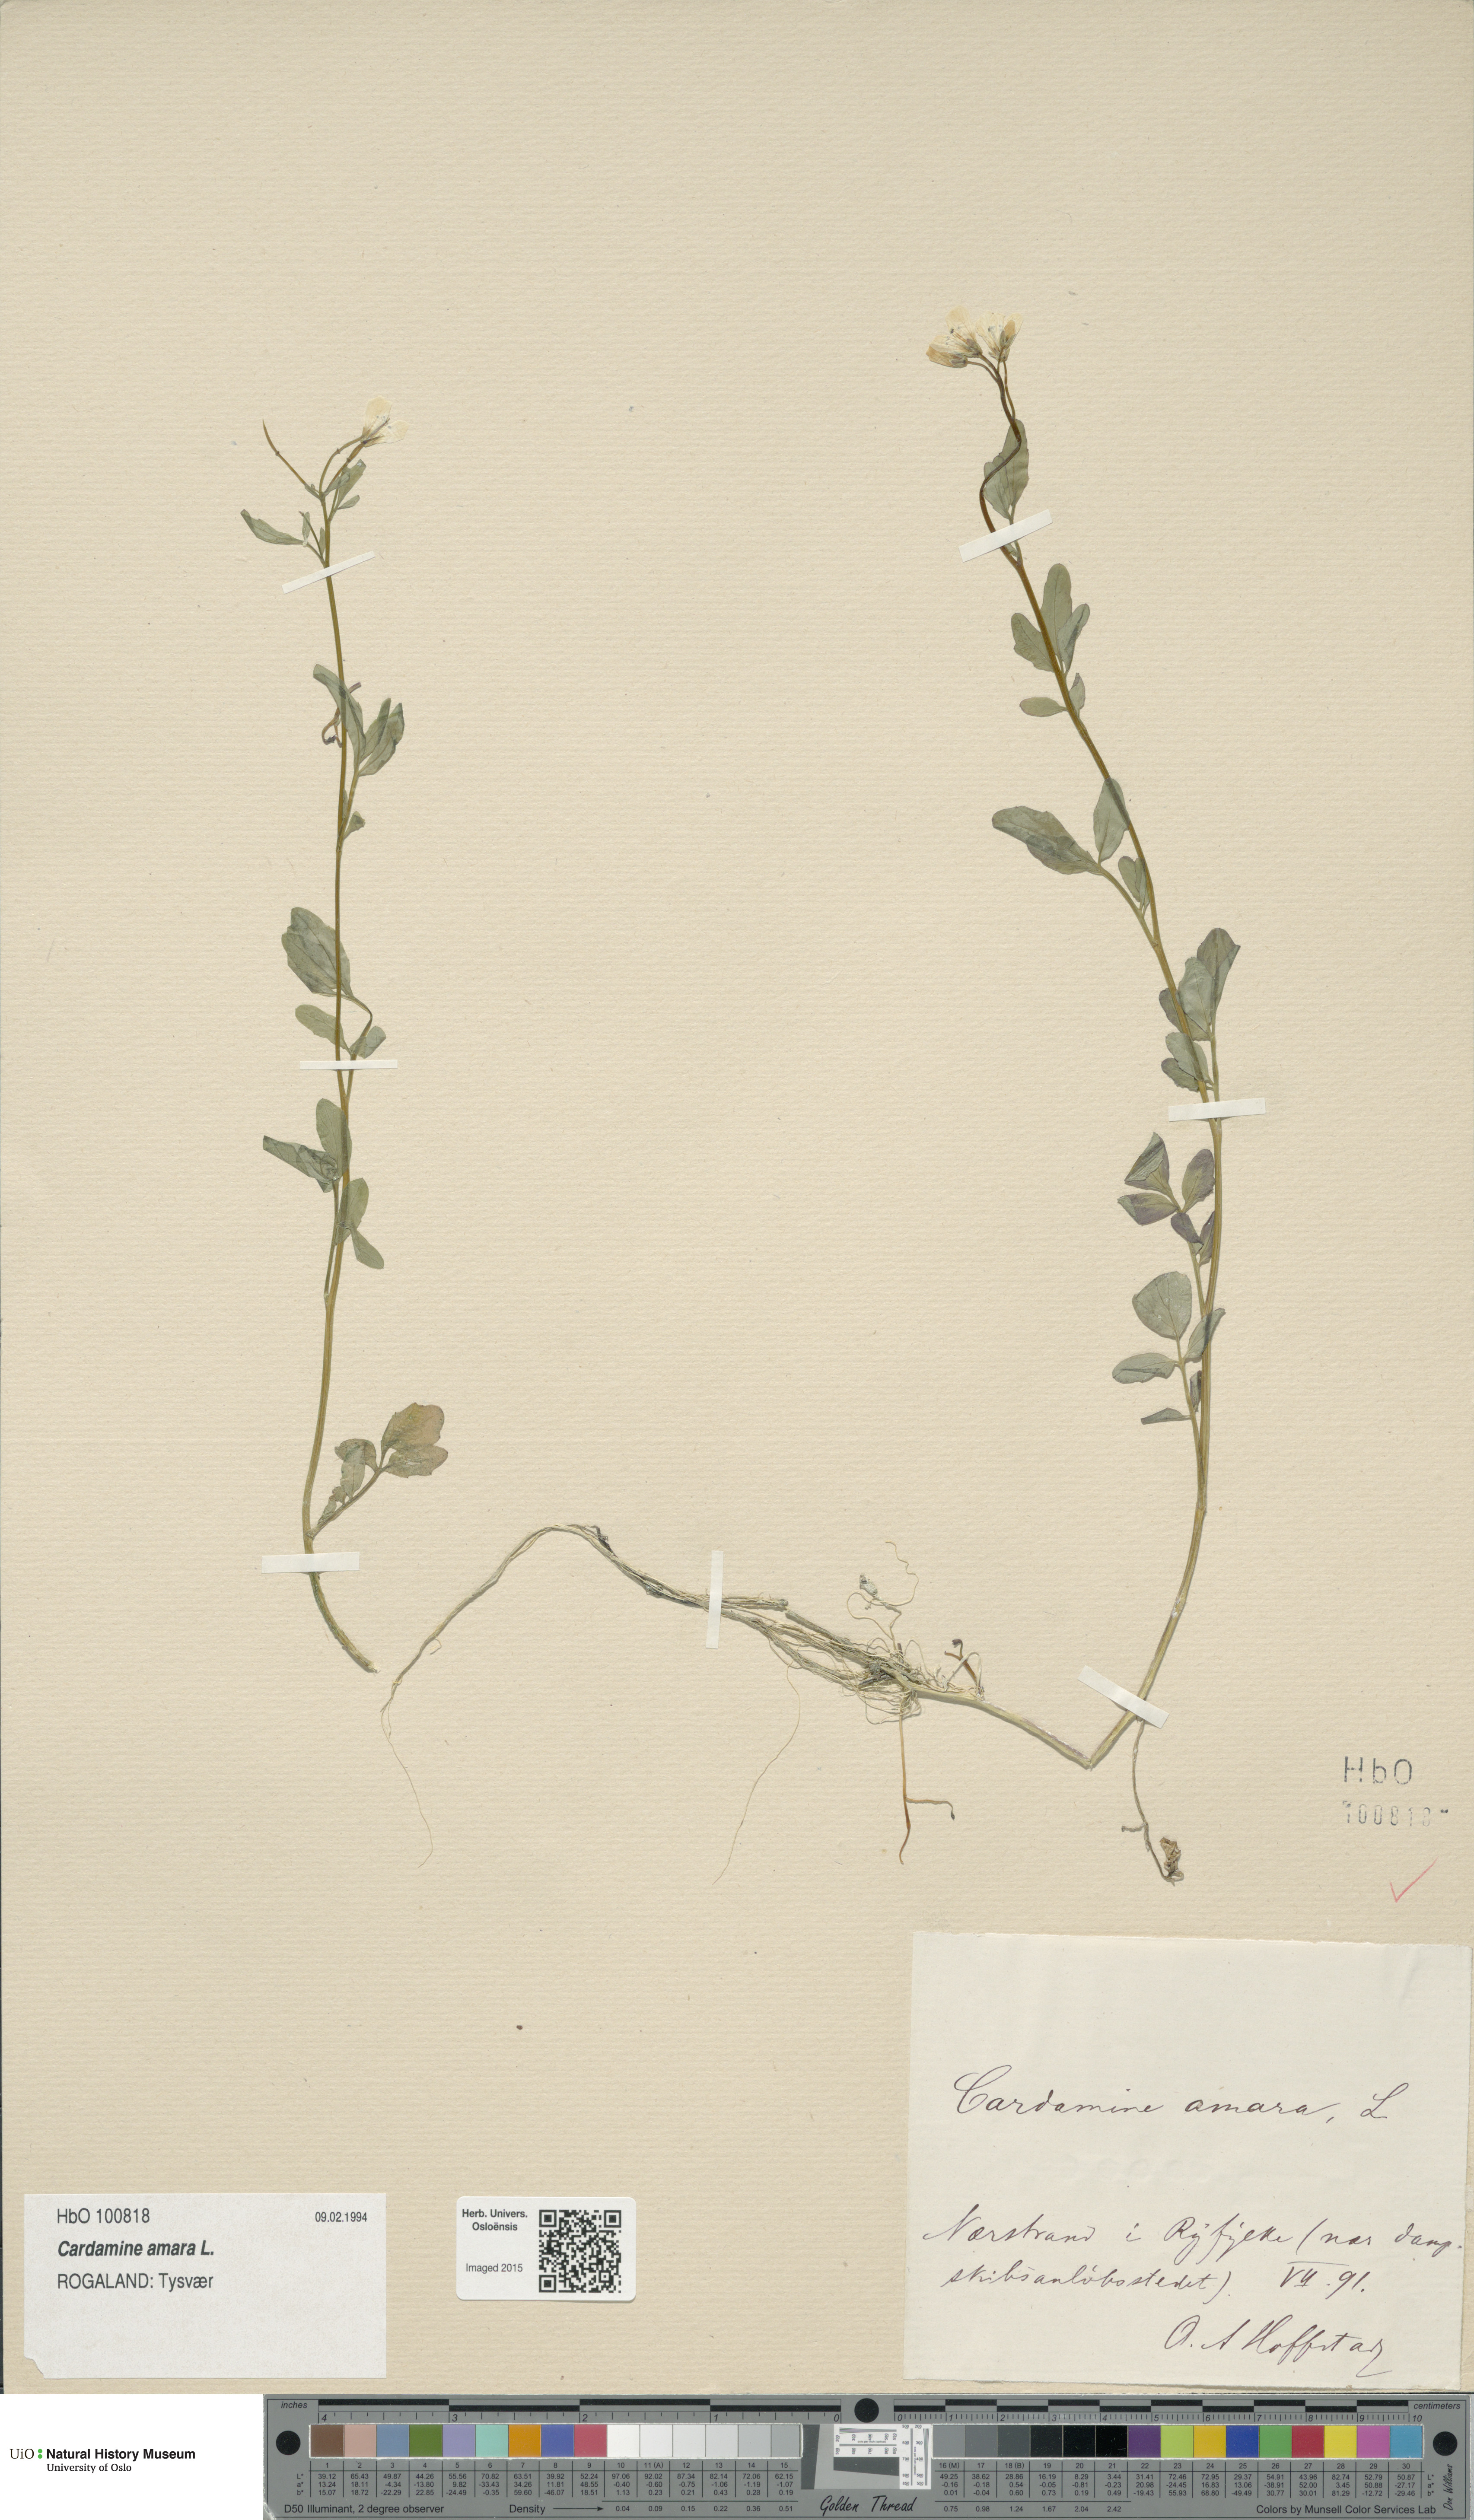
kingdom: Plantae
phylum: Tracheophyta
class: Magnoliopsida
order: Brassicales
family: Brassicaceae
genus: Cardamine
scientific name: Cardamine amara
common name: Large bitter-cress
